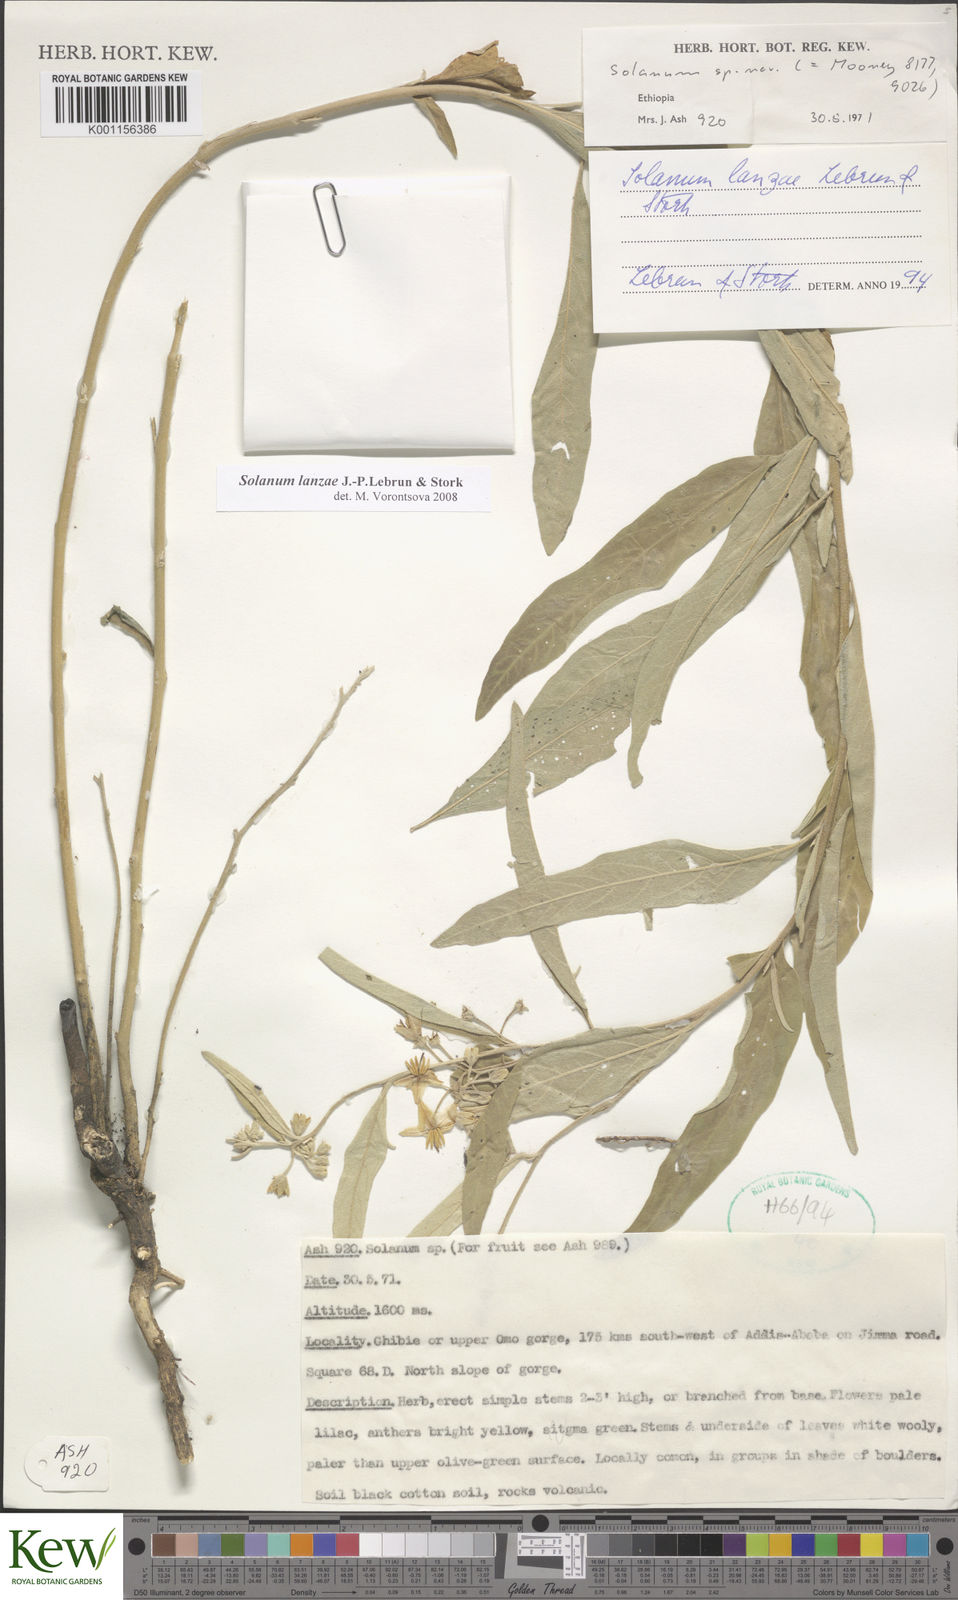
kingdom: Plantae
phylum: Tracheophyta
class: Magnoliopsida
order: Solanales
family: Solanaceae
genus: Solanum
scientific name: Solanum lanzae
